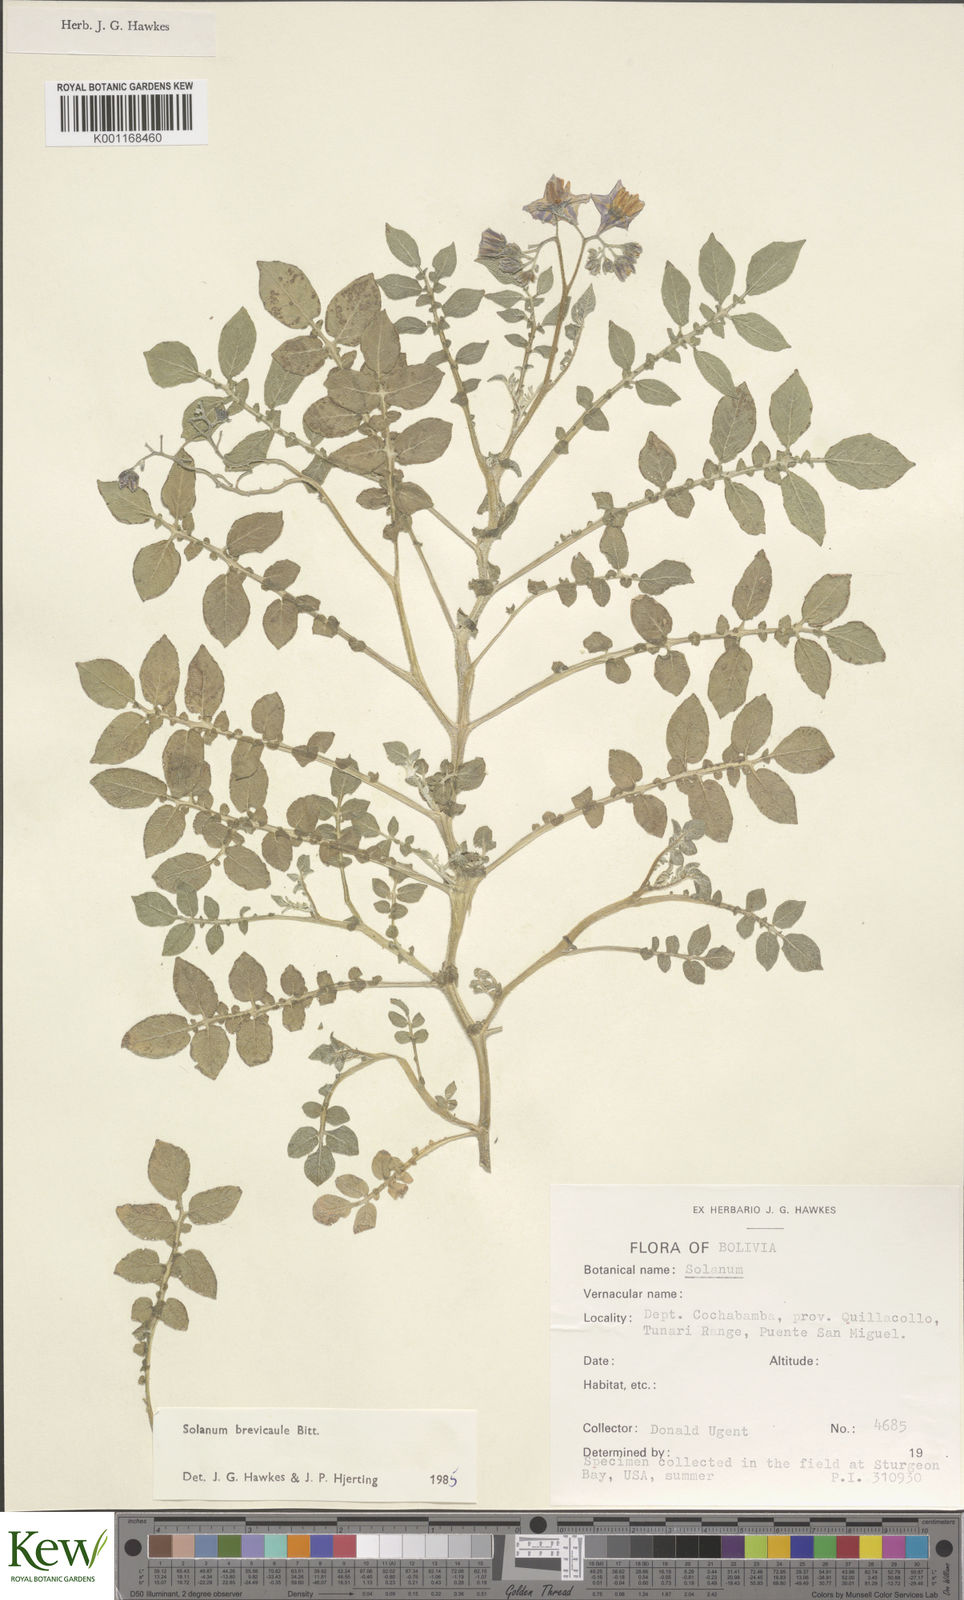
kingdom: Plantae
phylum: Tracheophyta
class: Magnoliopsida
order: Solanales
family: Solanaceae
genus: Solanum
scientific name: Solanum brevicaule
